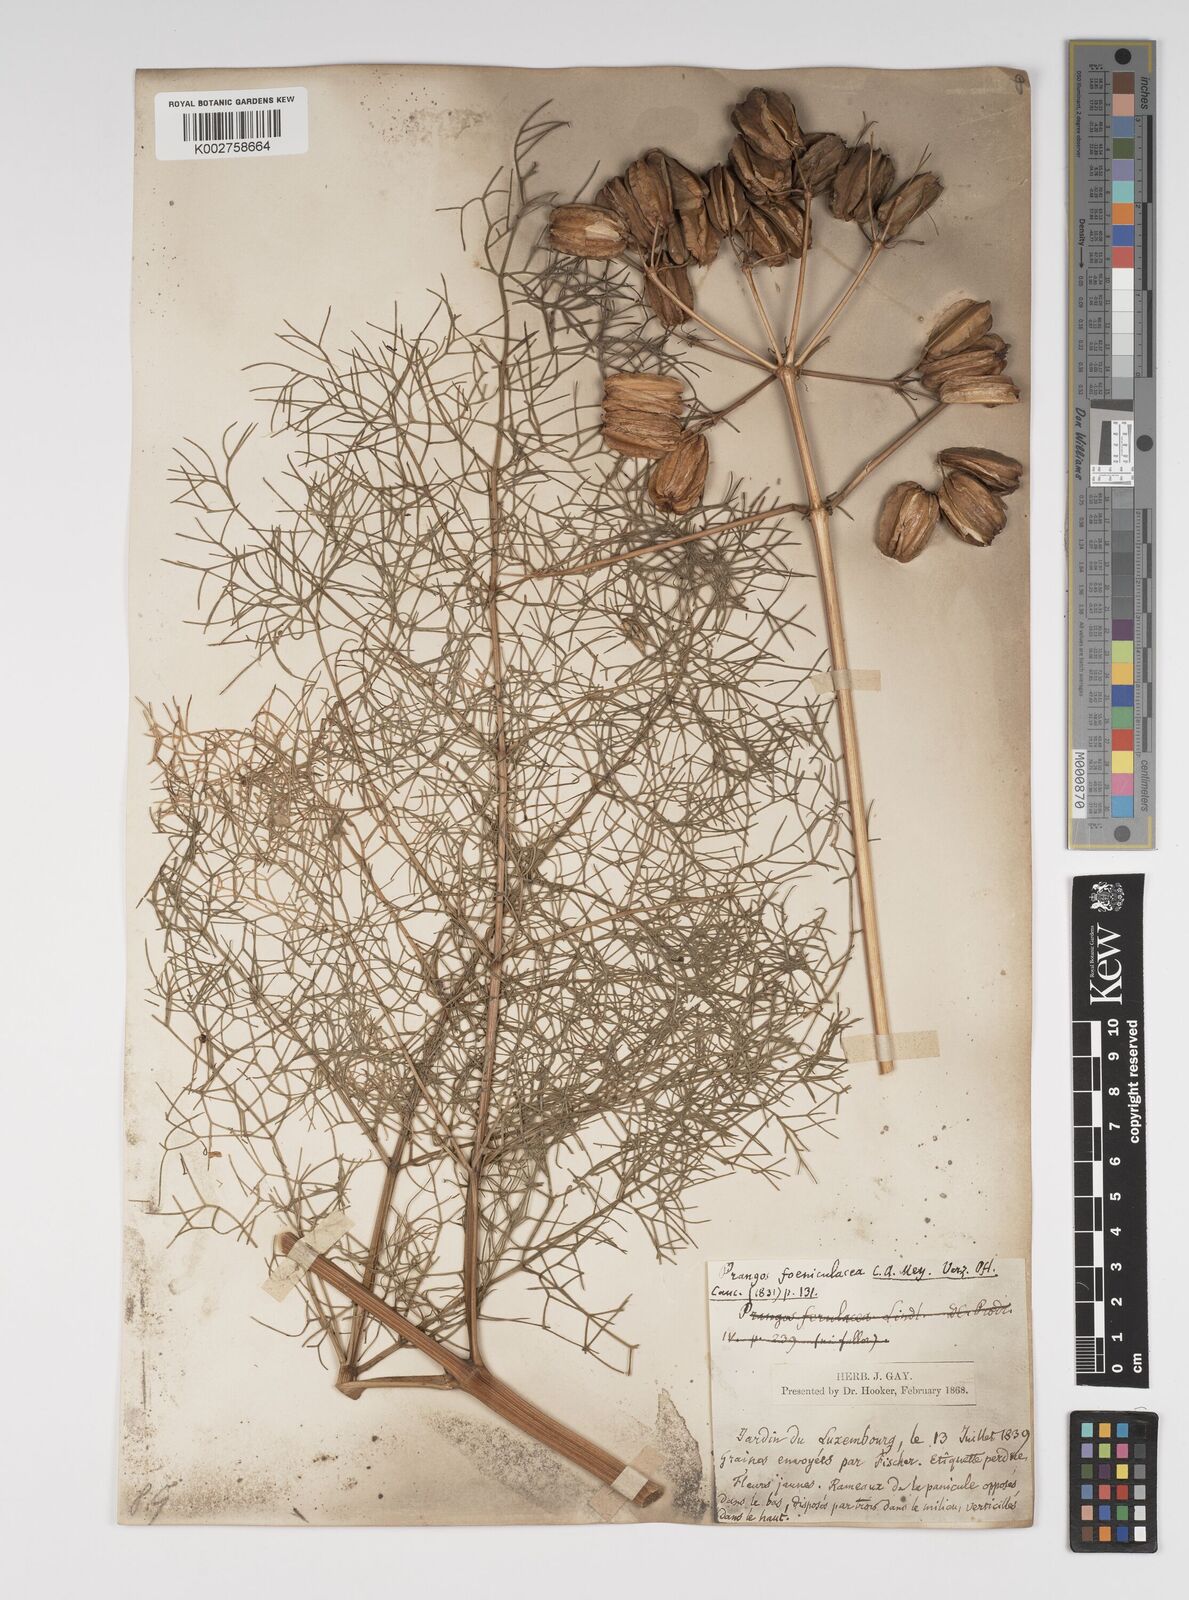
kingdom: Plantae
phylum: Tracheophyta
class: Magnoliopsida
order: Apiales
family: Apiaceae
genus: Prangos
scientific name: Prangos ferulacea
